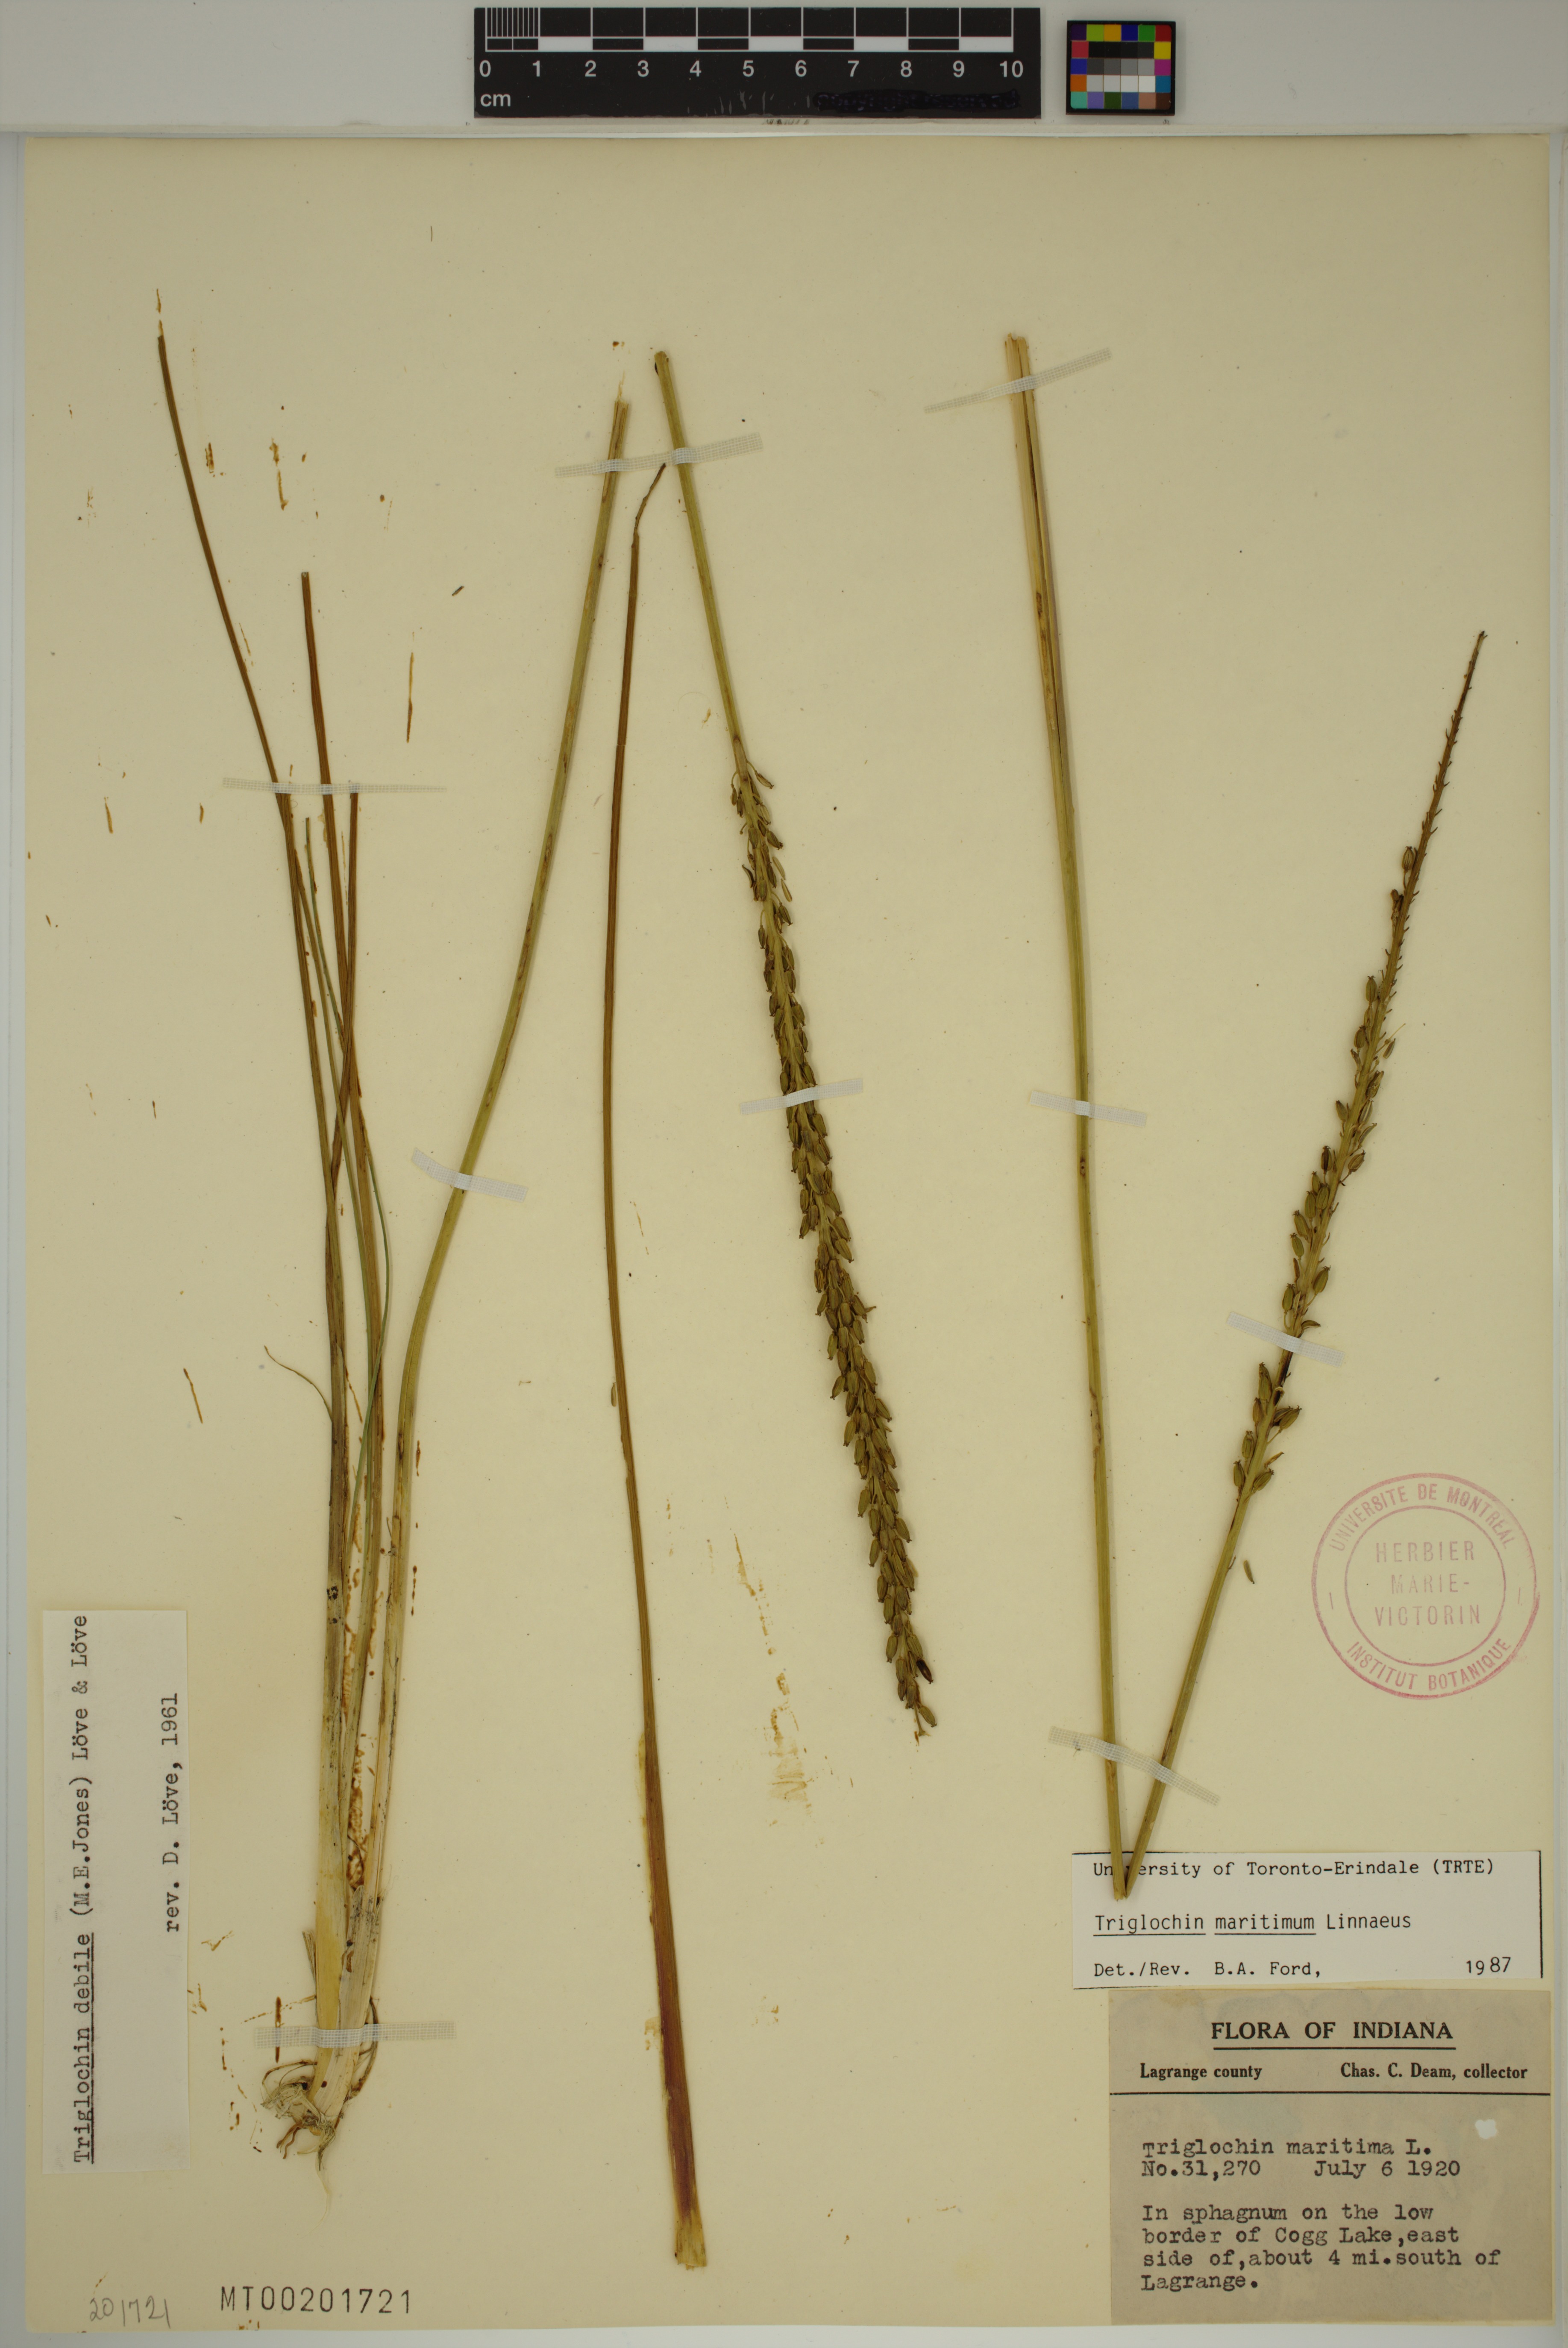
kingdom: Plantae
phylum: Tracheophyta
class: Liliopsida
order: Alismatales
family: Juncaginaceae
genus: Triglochin
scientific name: Triglochin maritima
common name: Sea arrowgrass
